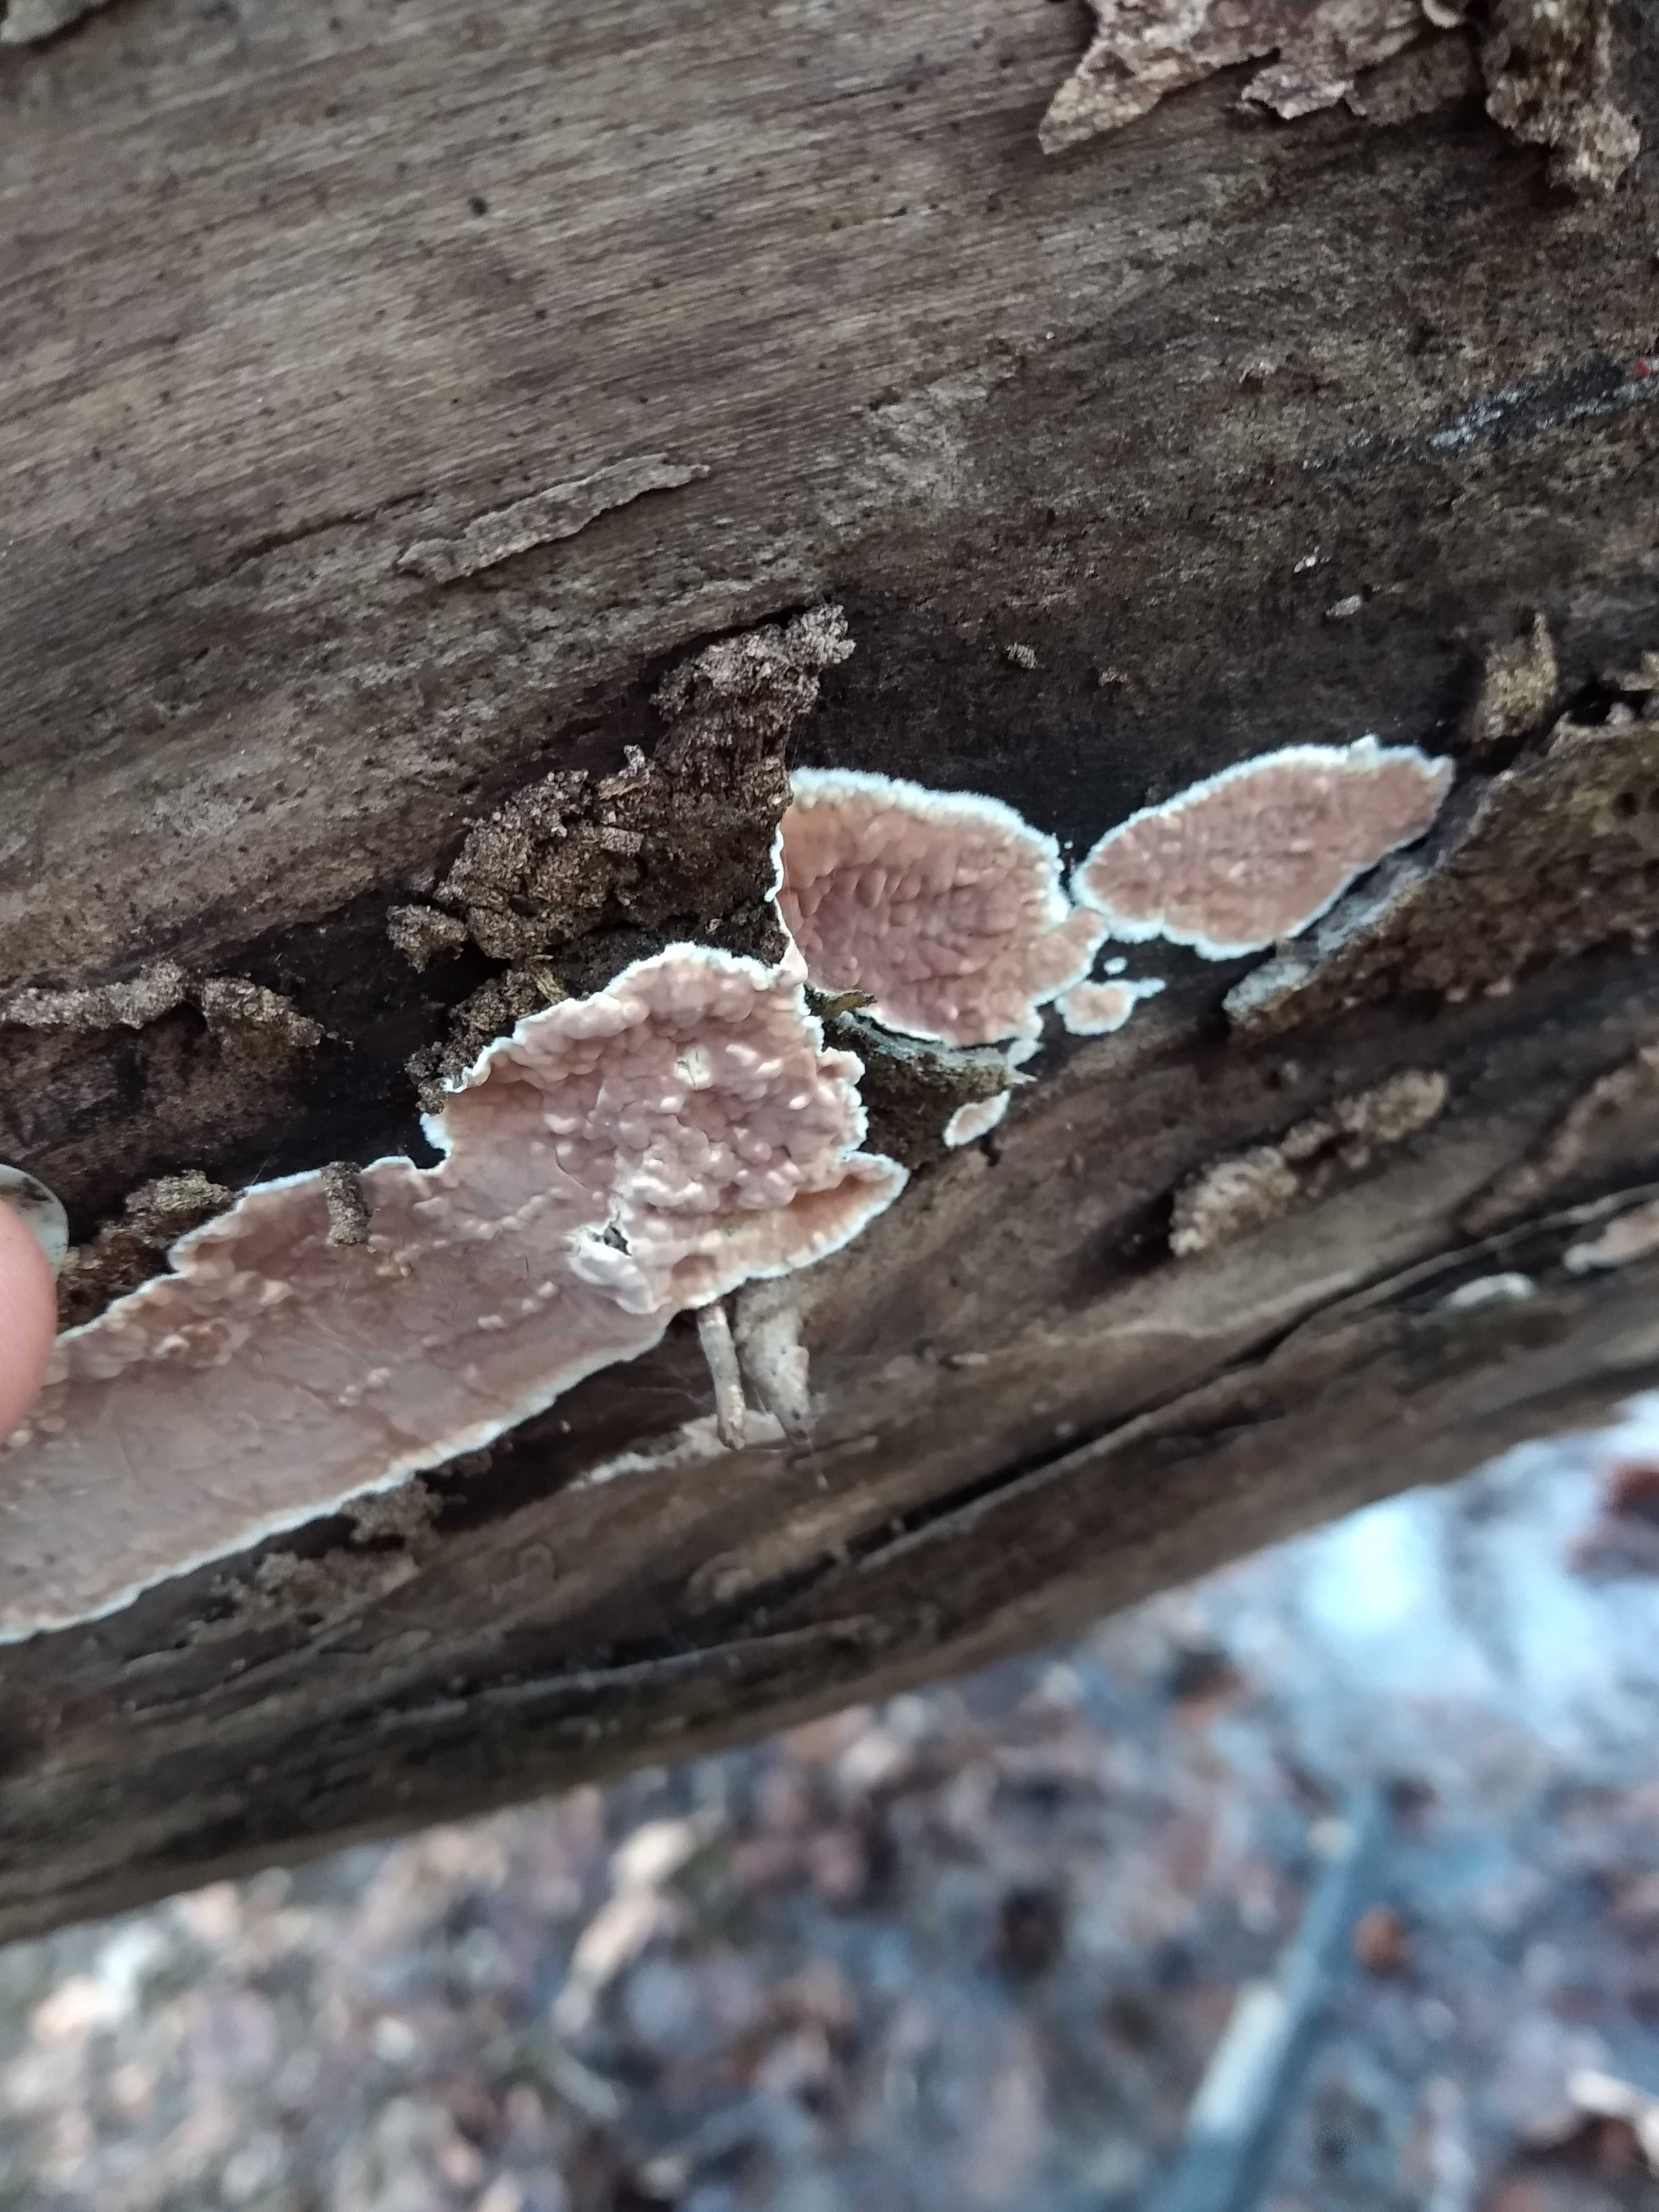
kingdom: Fungi
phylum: Basidiomycota
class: Agaricomycetes
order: Agaricales
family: Physalacriaceae
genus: Cylindrobasidium
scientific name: Cylindrobasidium evolvens
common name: sprækkehinde
